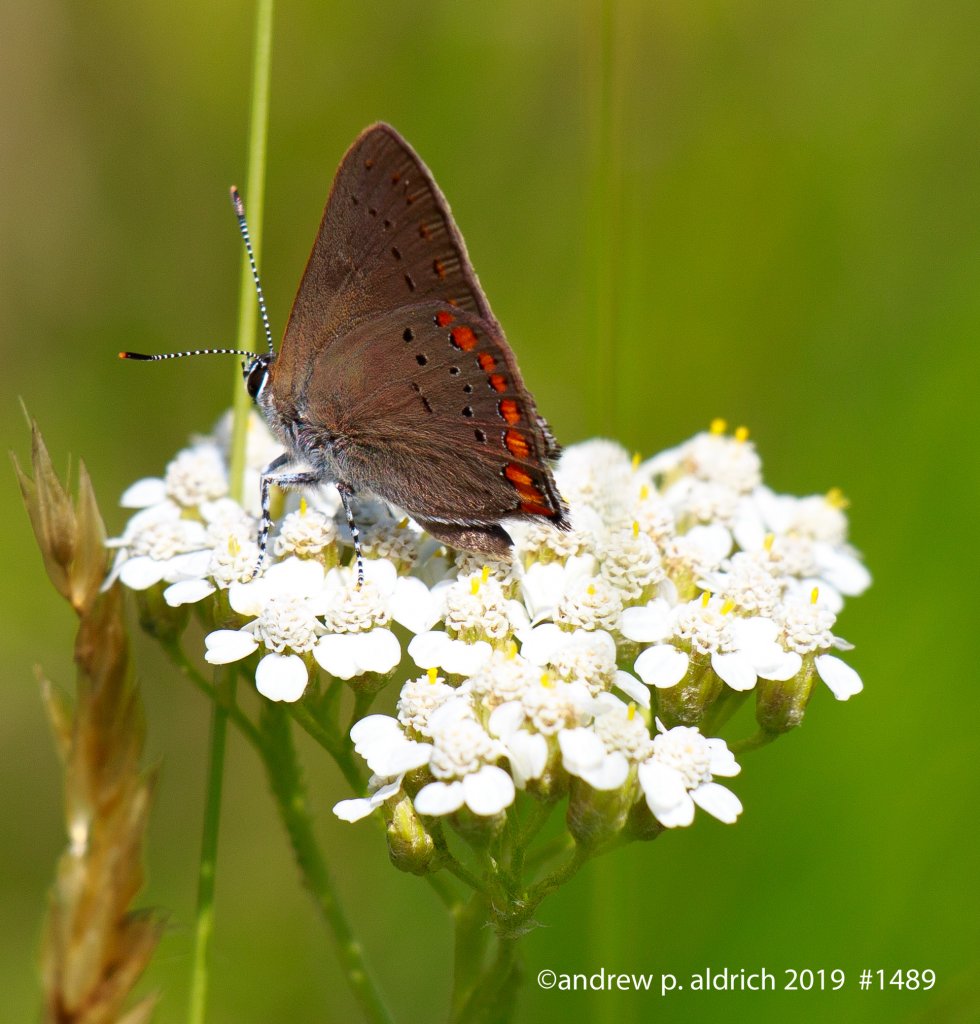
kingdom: Animalia
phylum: Arthropoda
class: Insecta
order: Lepidoptera
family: Lycaenidae
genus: Harkenclenus
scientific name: Harkenclenus titus
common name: Coral Hairstreak
